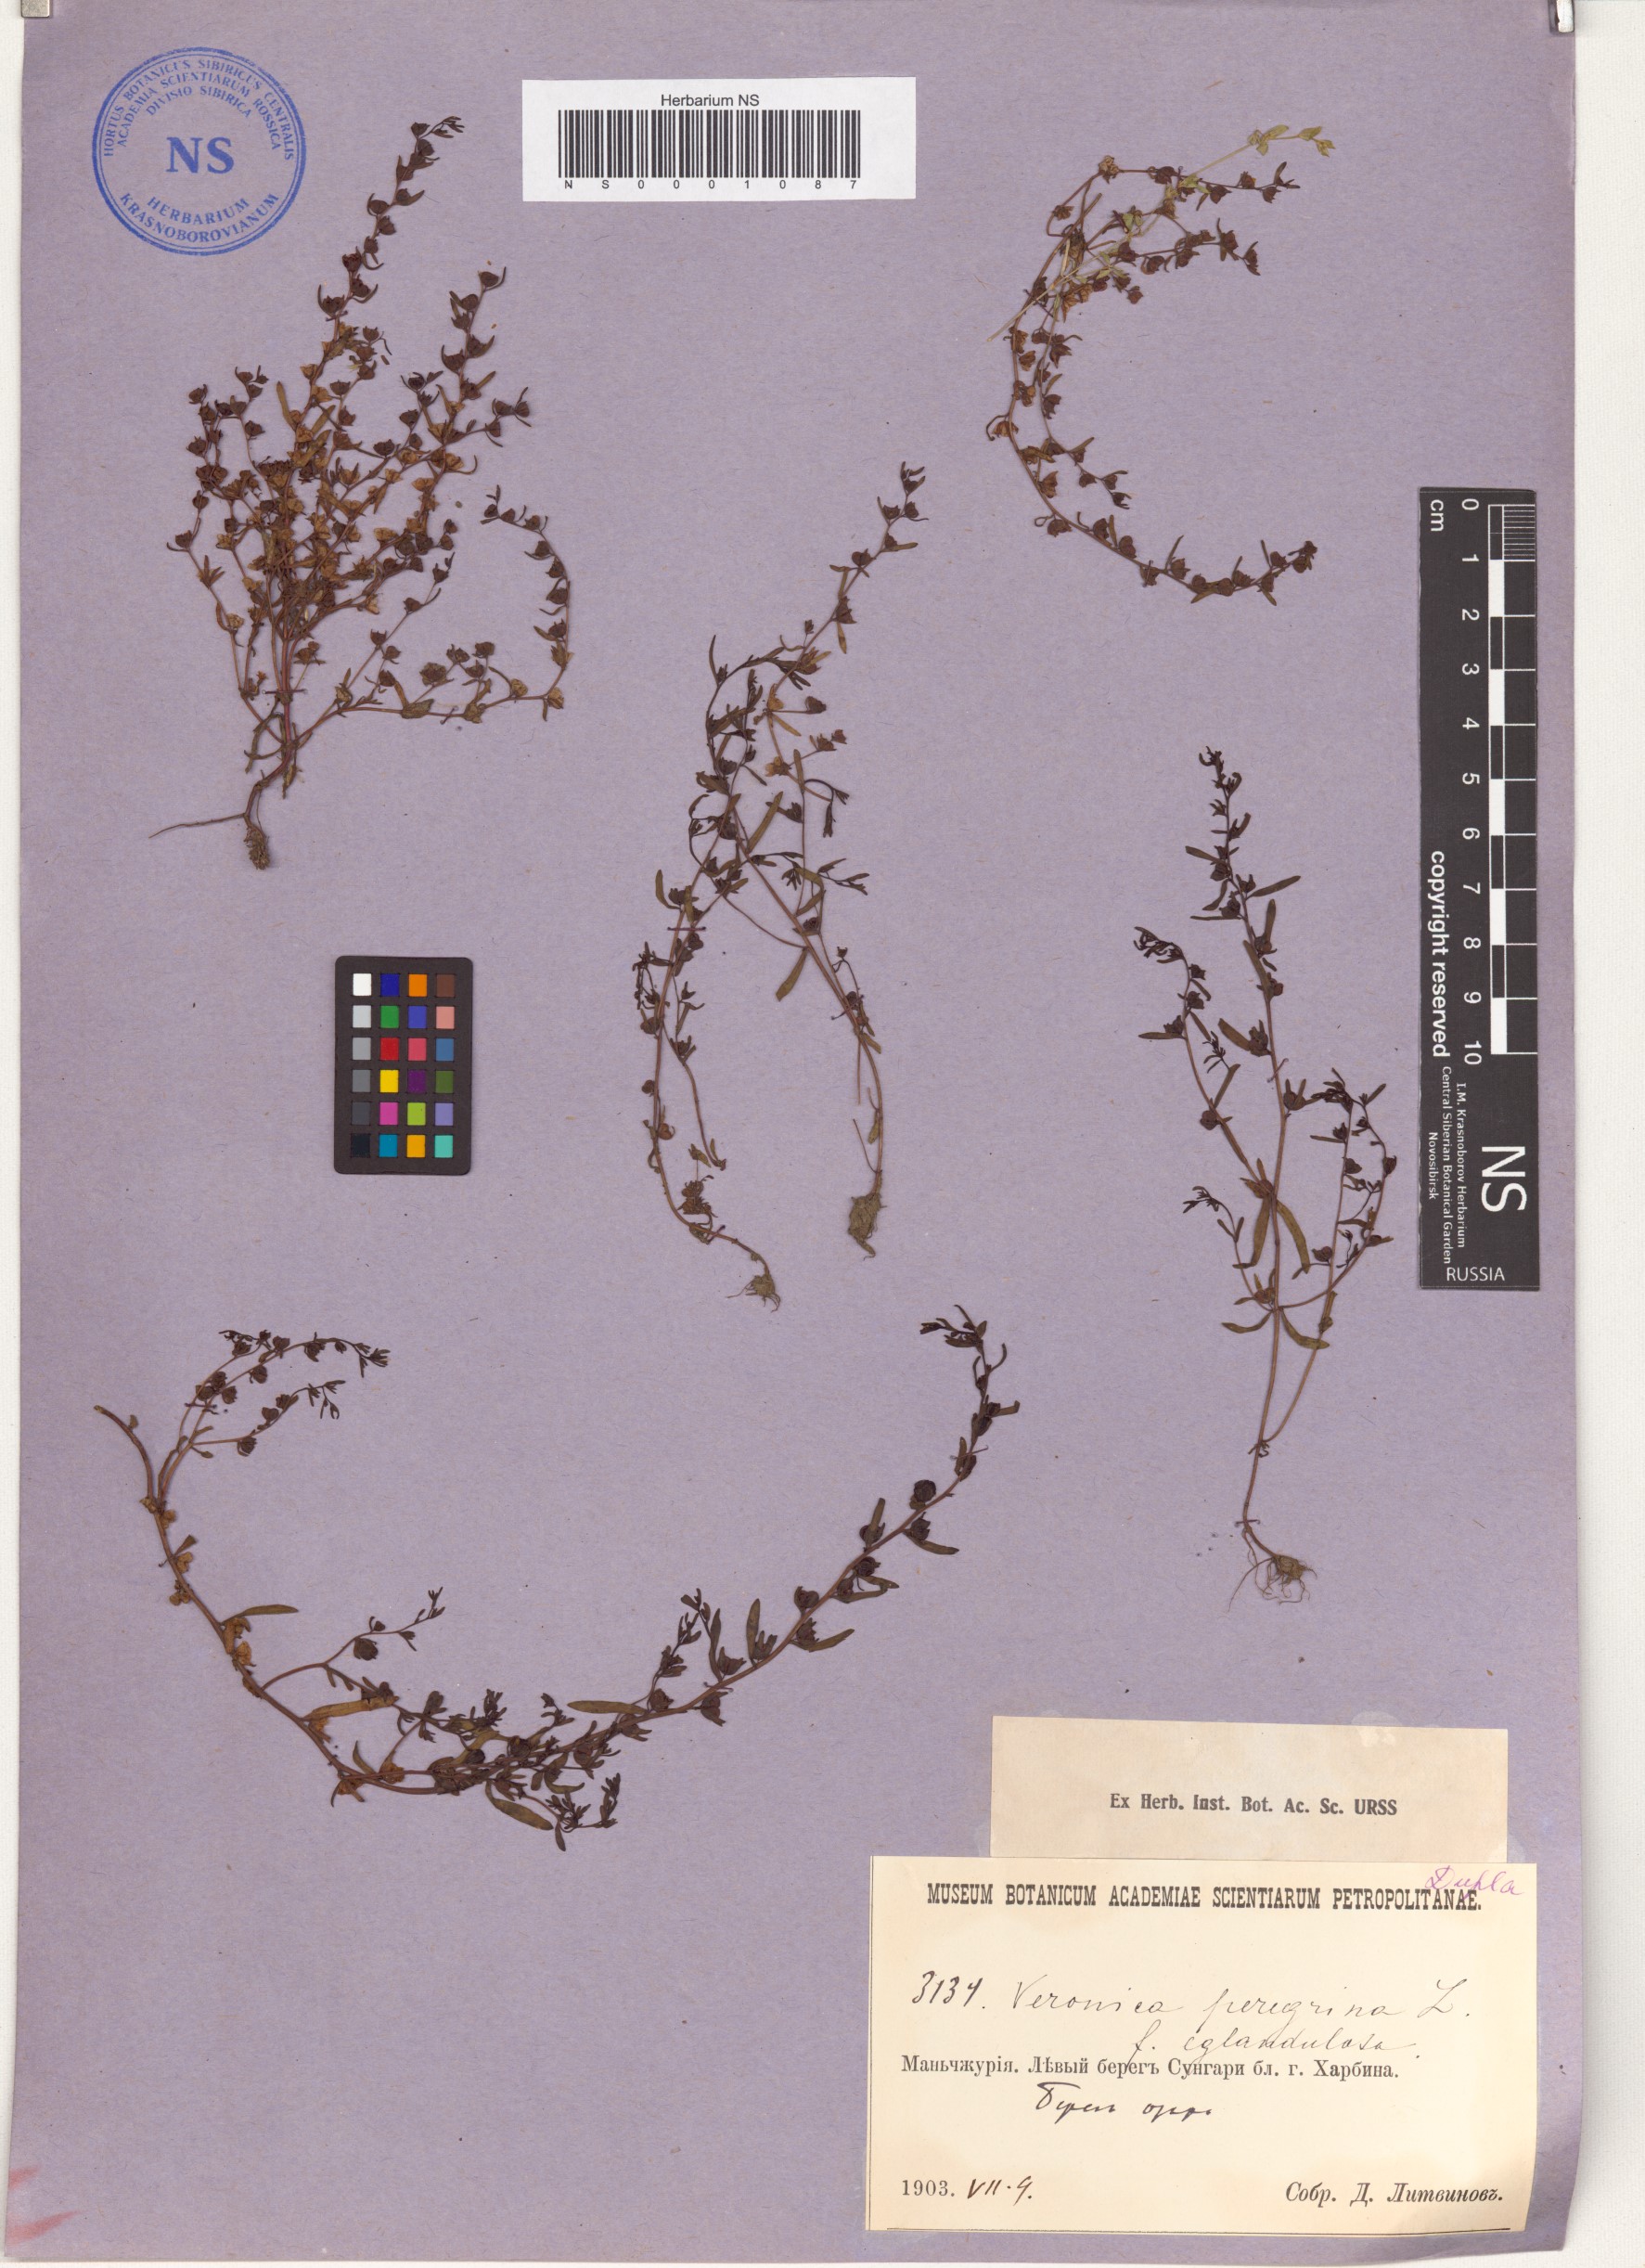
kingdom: Plantae
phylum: Tracheophyta
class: Magnoliopsida
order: Lamiales
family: Plantaginaceae
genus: Veronica
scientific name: Veronica peregrina
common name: Neckweed
